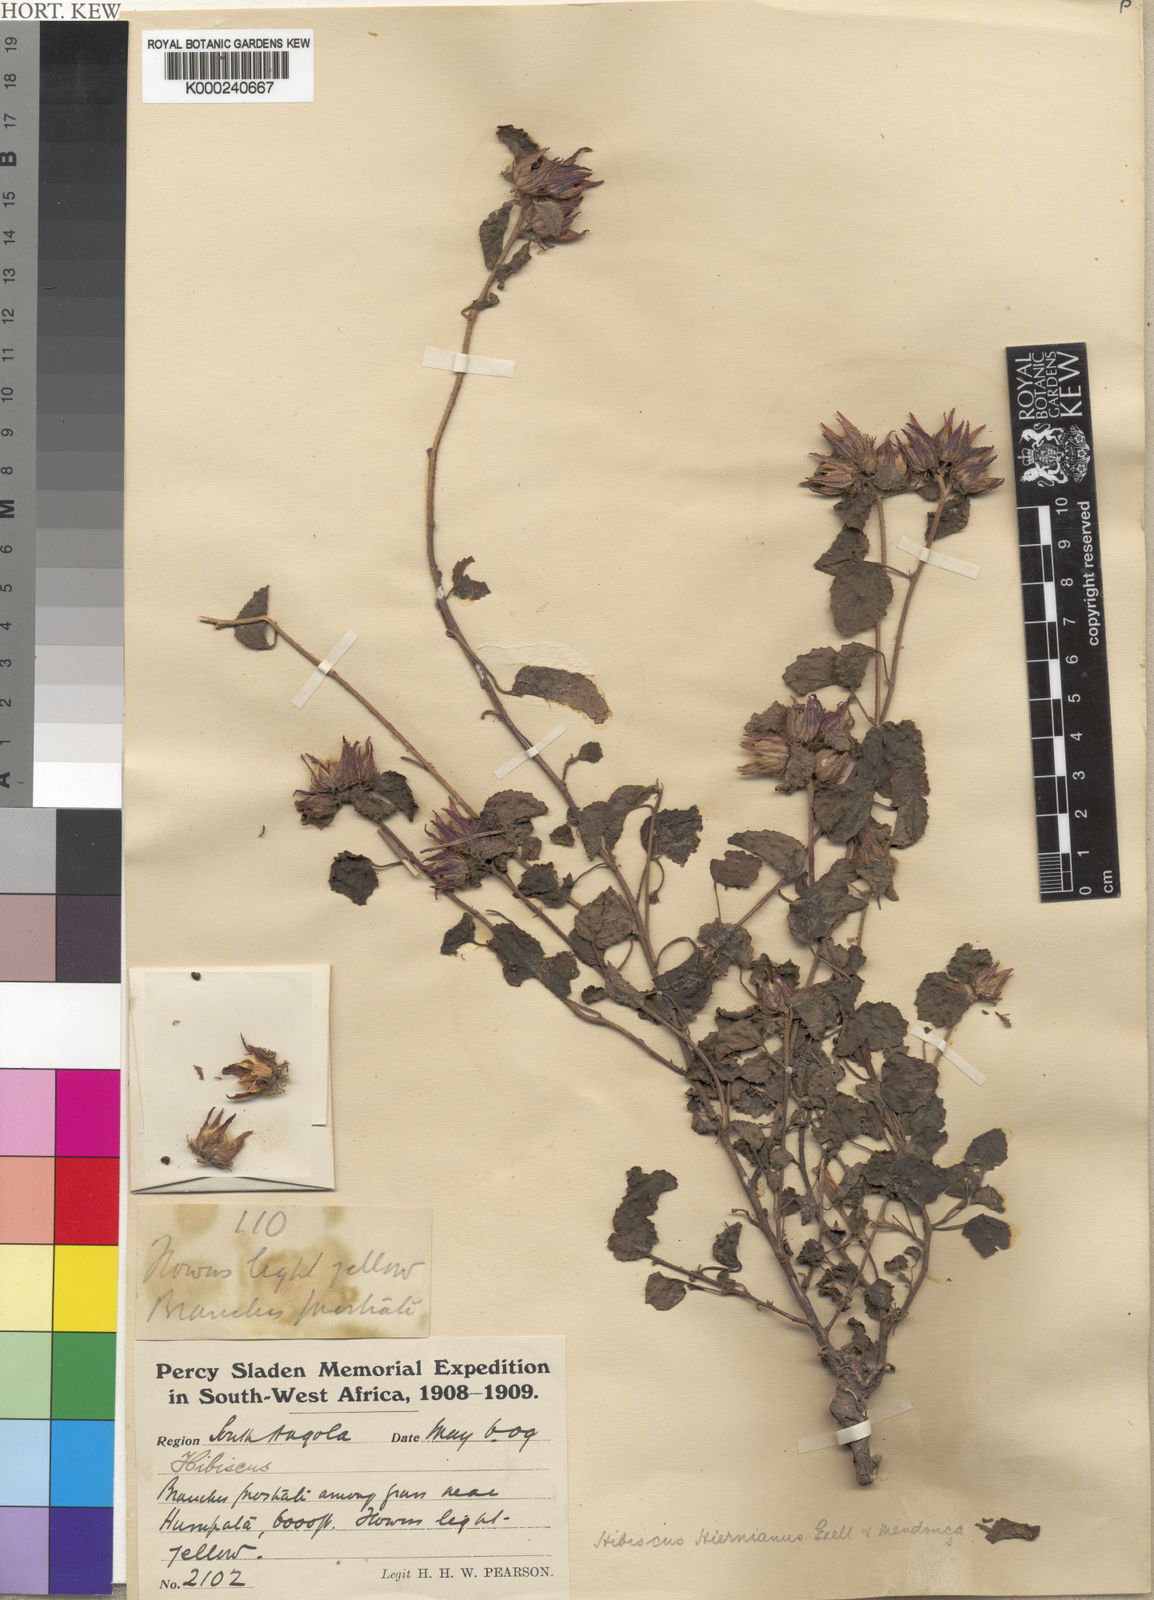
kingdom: Plantae
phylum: Tracheophyta
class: Magnoliopsida
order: Malvales
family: Malvaceae
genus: Hibiscus
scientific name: Hibiscus
